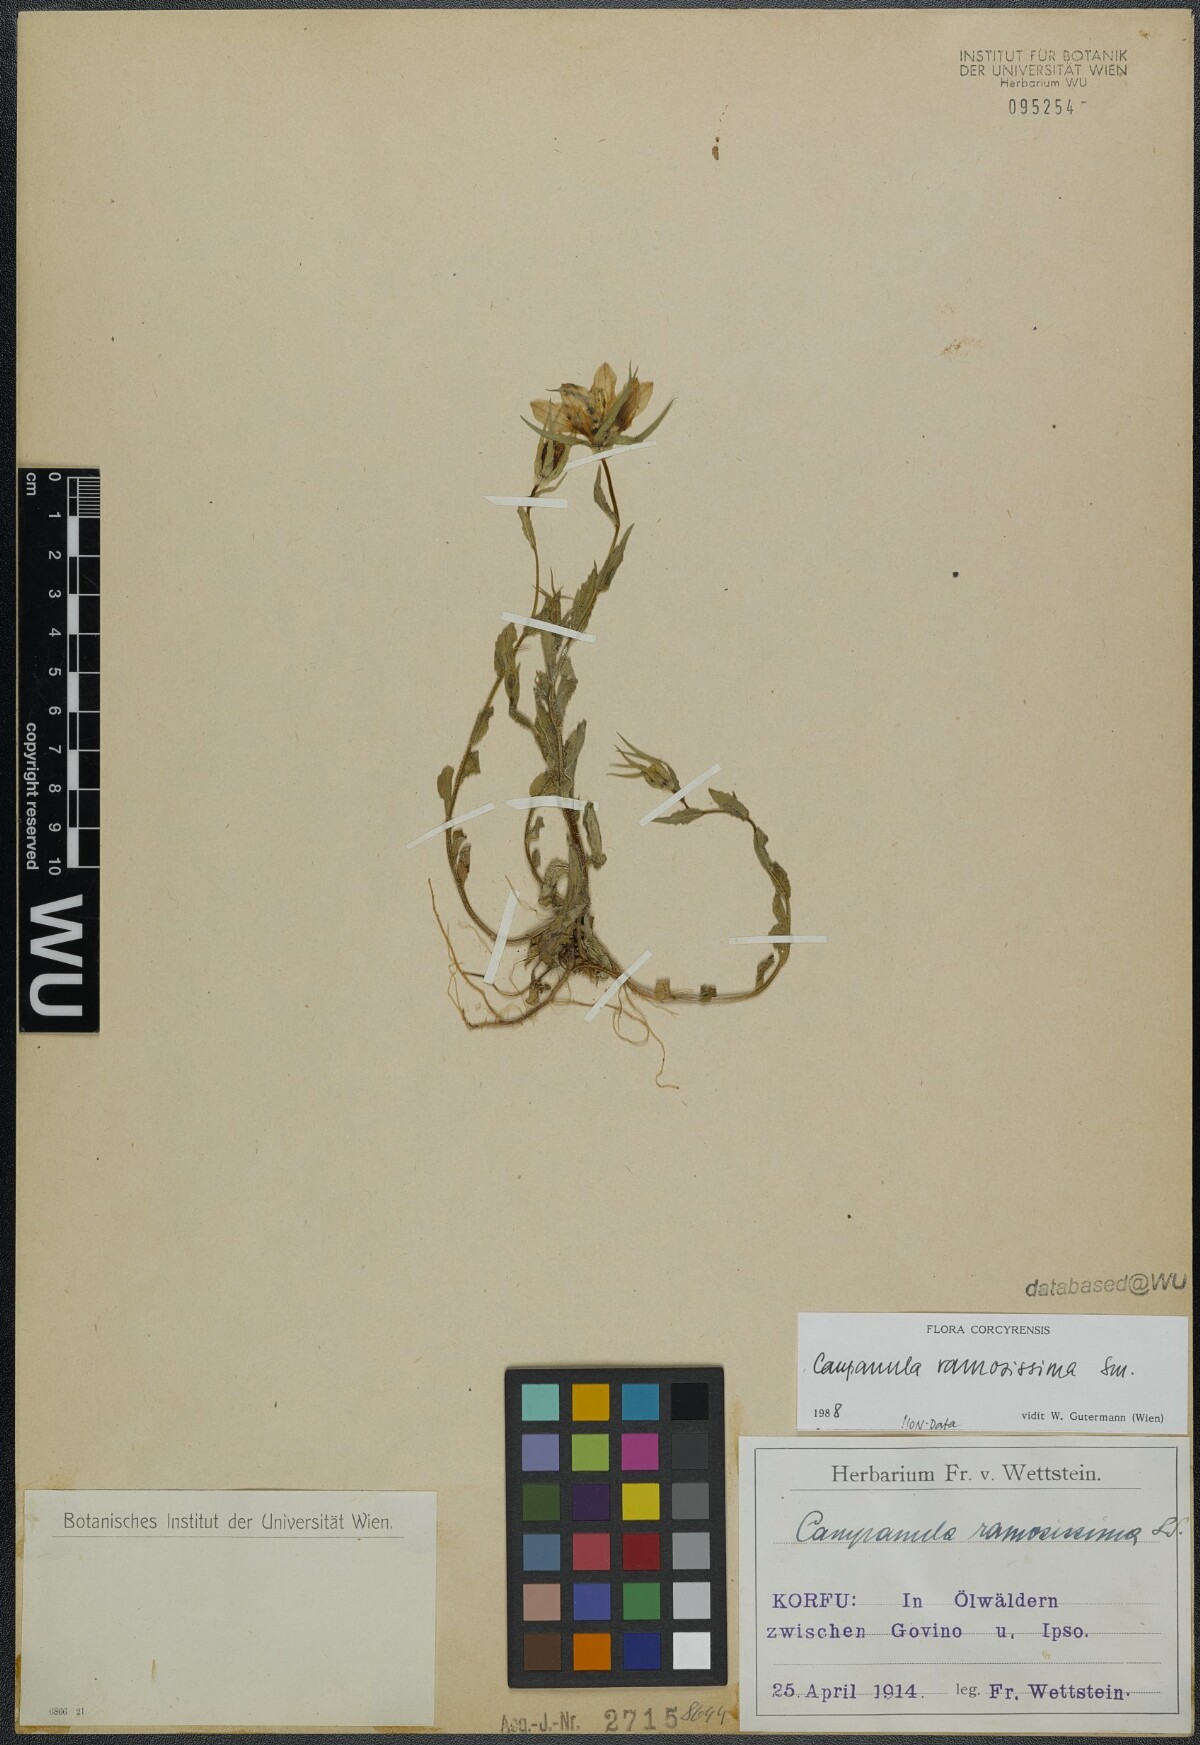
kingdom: Plantae
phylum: Tracheophyta
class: Magnoliopsida
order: Asterales
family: Campanulaceae
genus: Campanula
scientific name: Campanula ramosissima
